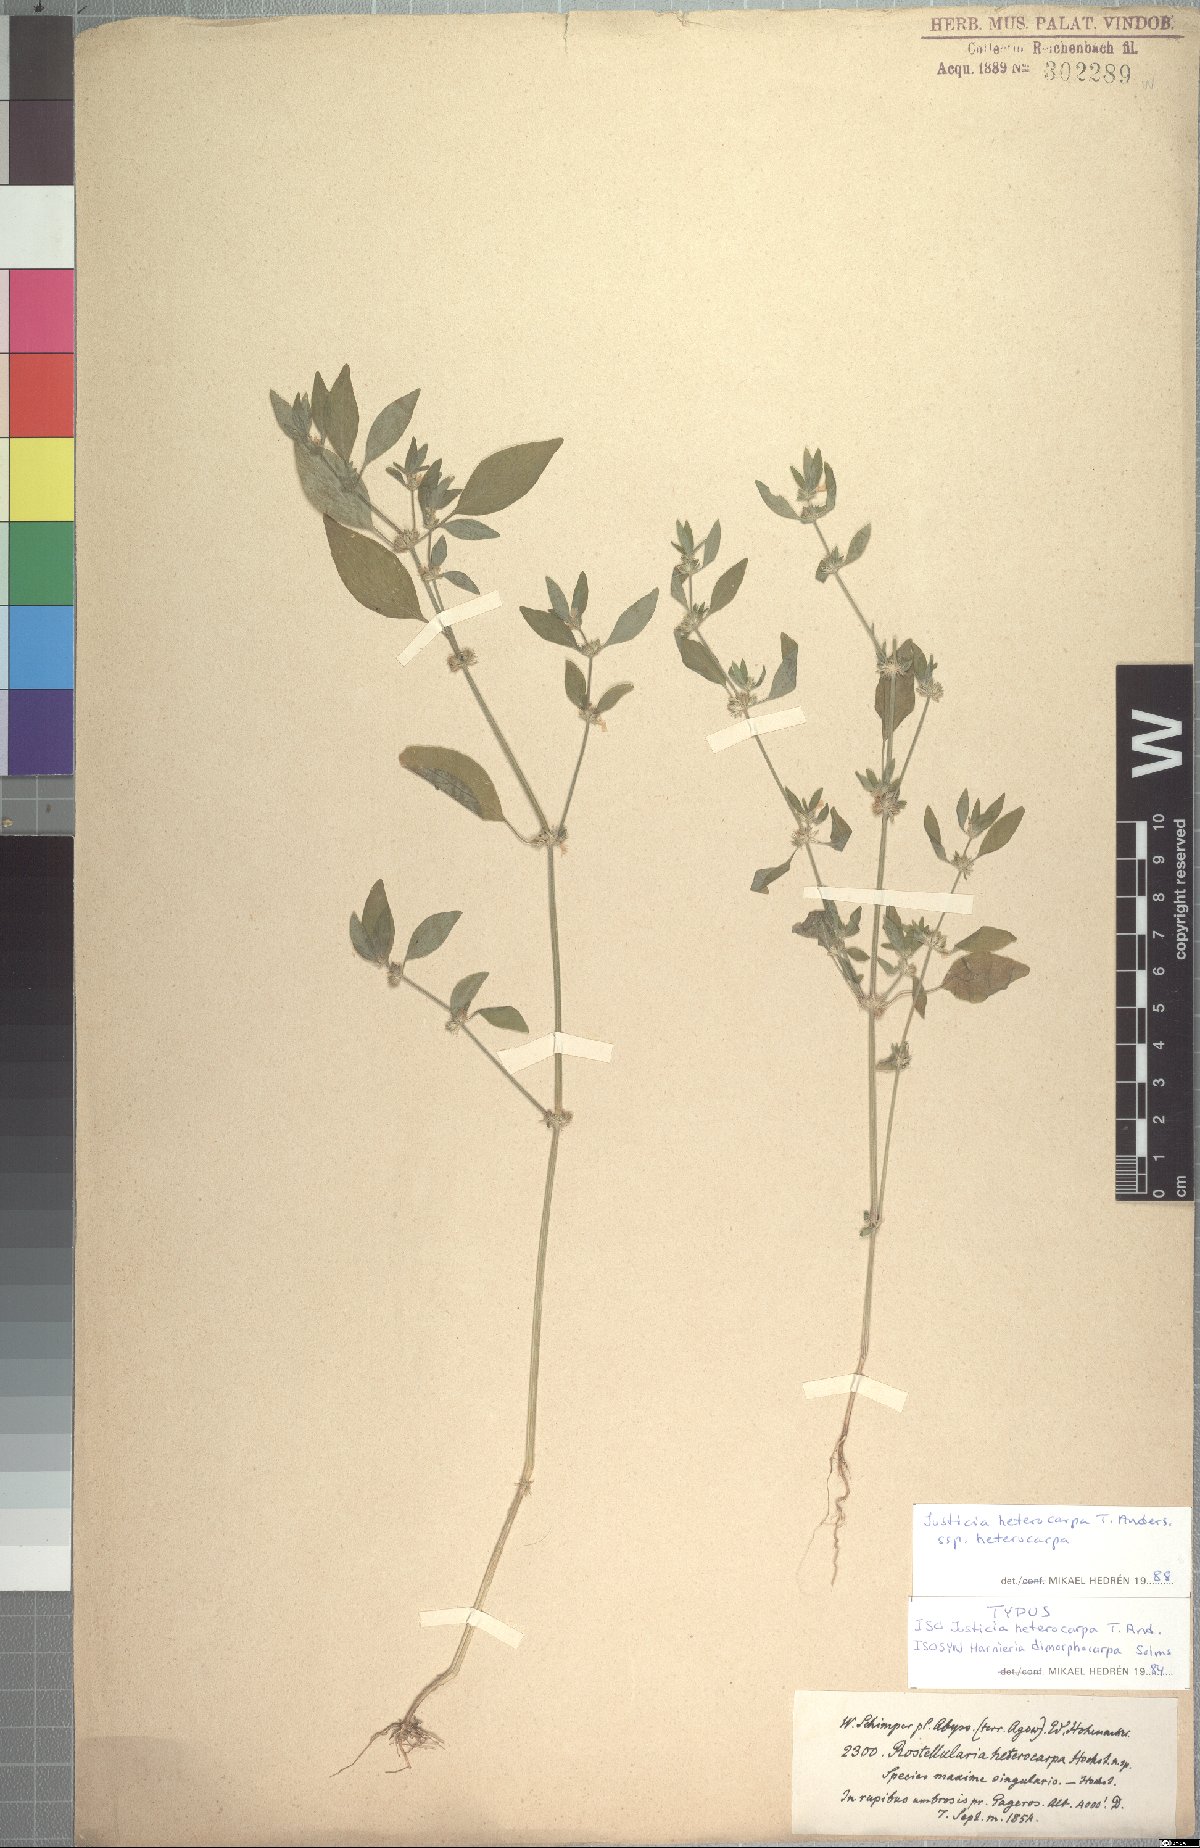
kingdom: Plantae
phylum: Tracheophyta
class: Magnoliopsida
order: Lamiales
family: Acanthaceae
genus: Justicia
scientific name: Justicia heterocarpa
